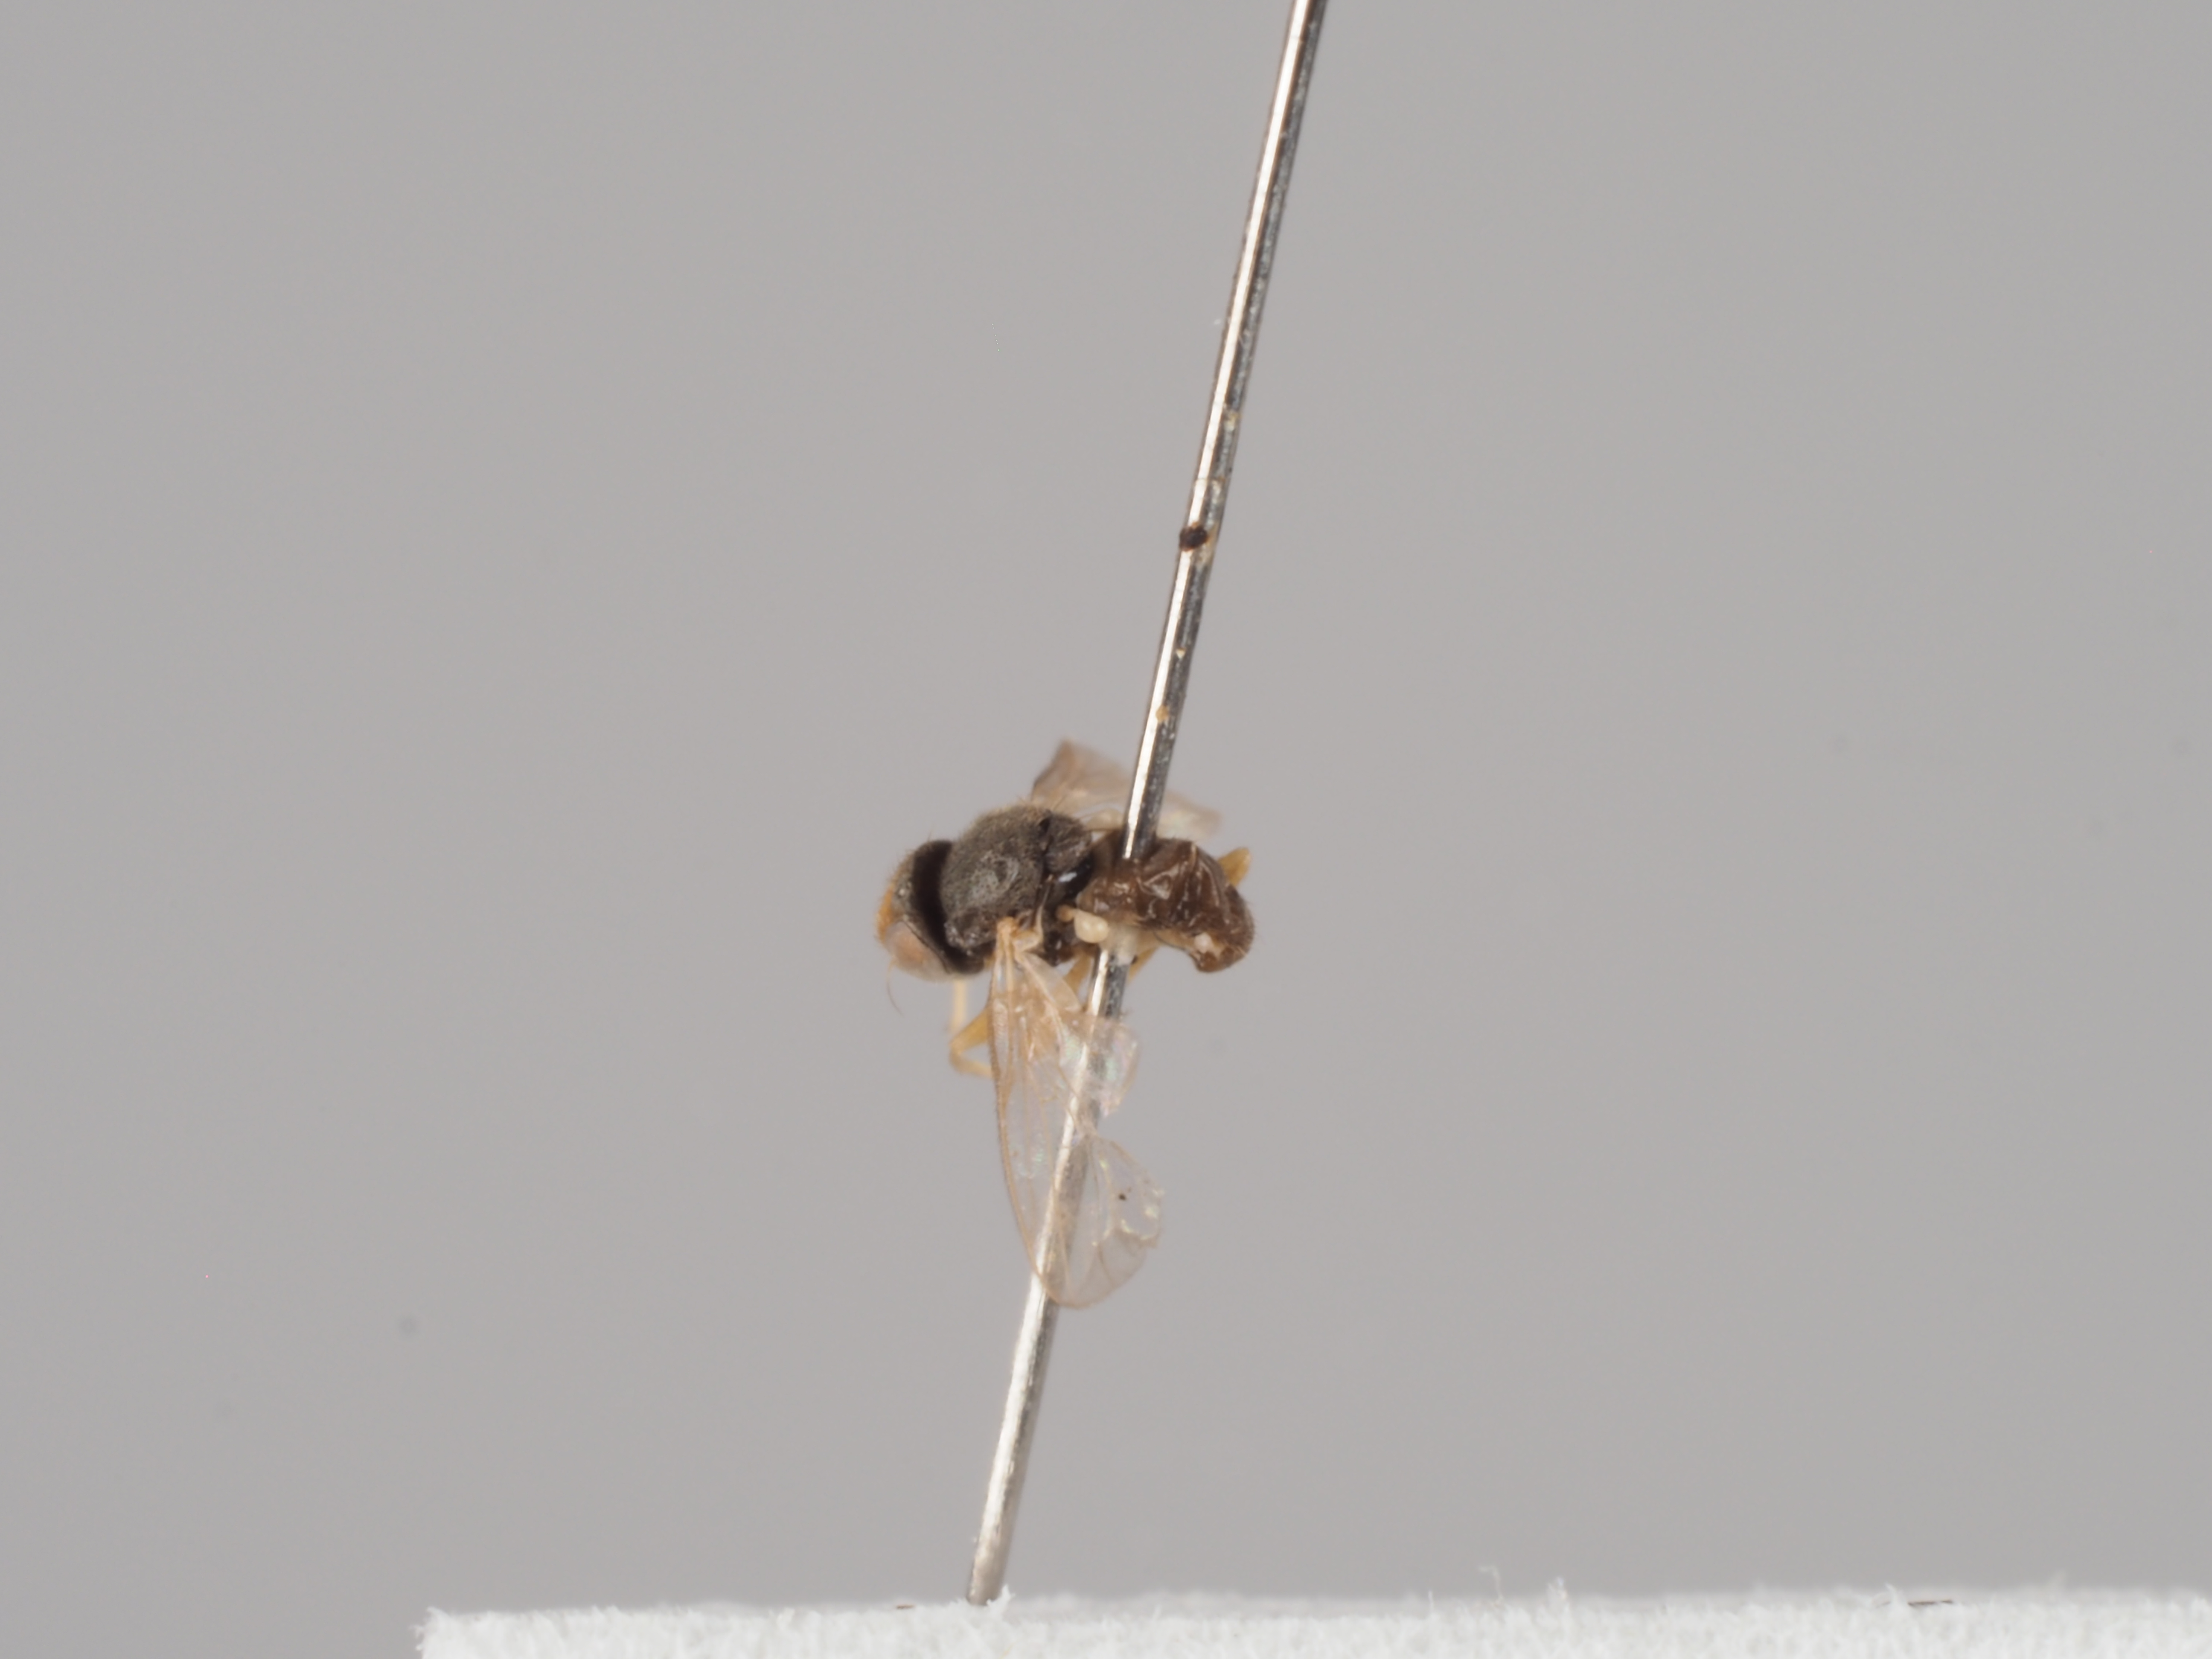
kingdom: Animalia
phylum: Arthropoda
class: Insecta
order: Diptera
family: Chloropidae
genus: Conioscinella
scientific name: Conioscinella sordidella
